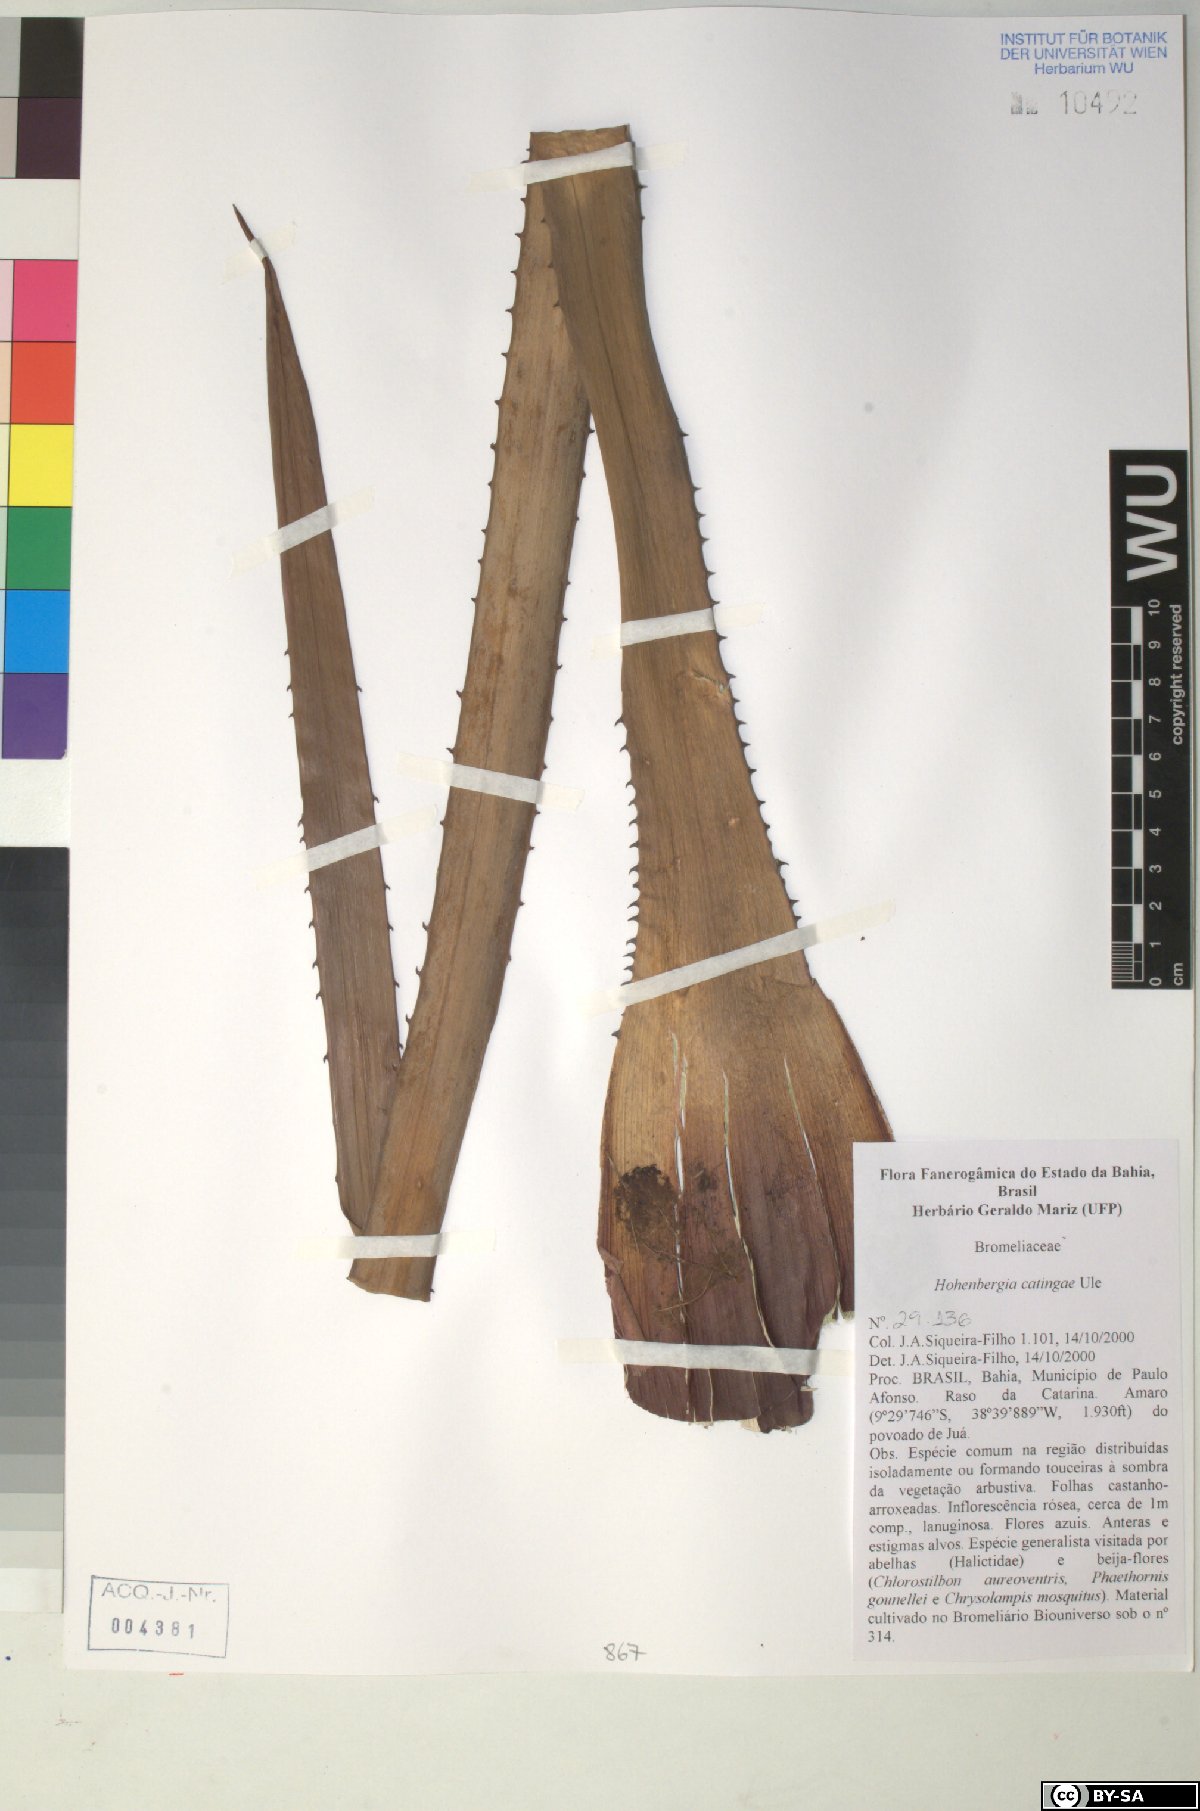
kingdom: Plantae
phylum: Tracheophyta
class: Liliopsida
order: Poales
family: Bromeliaceae
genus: Hohenbergia
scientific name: Hohenbergia catingae
